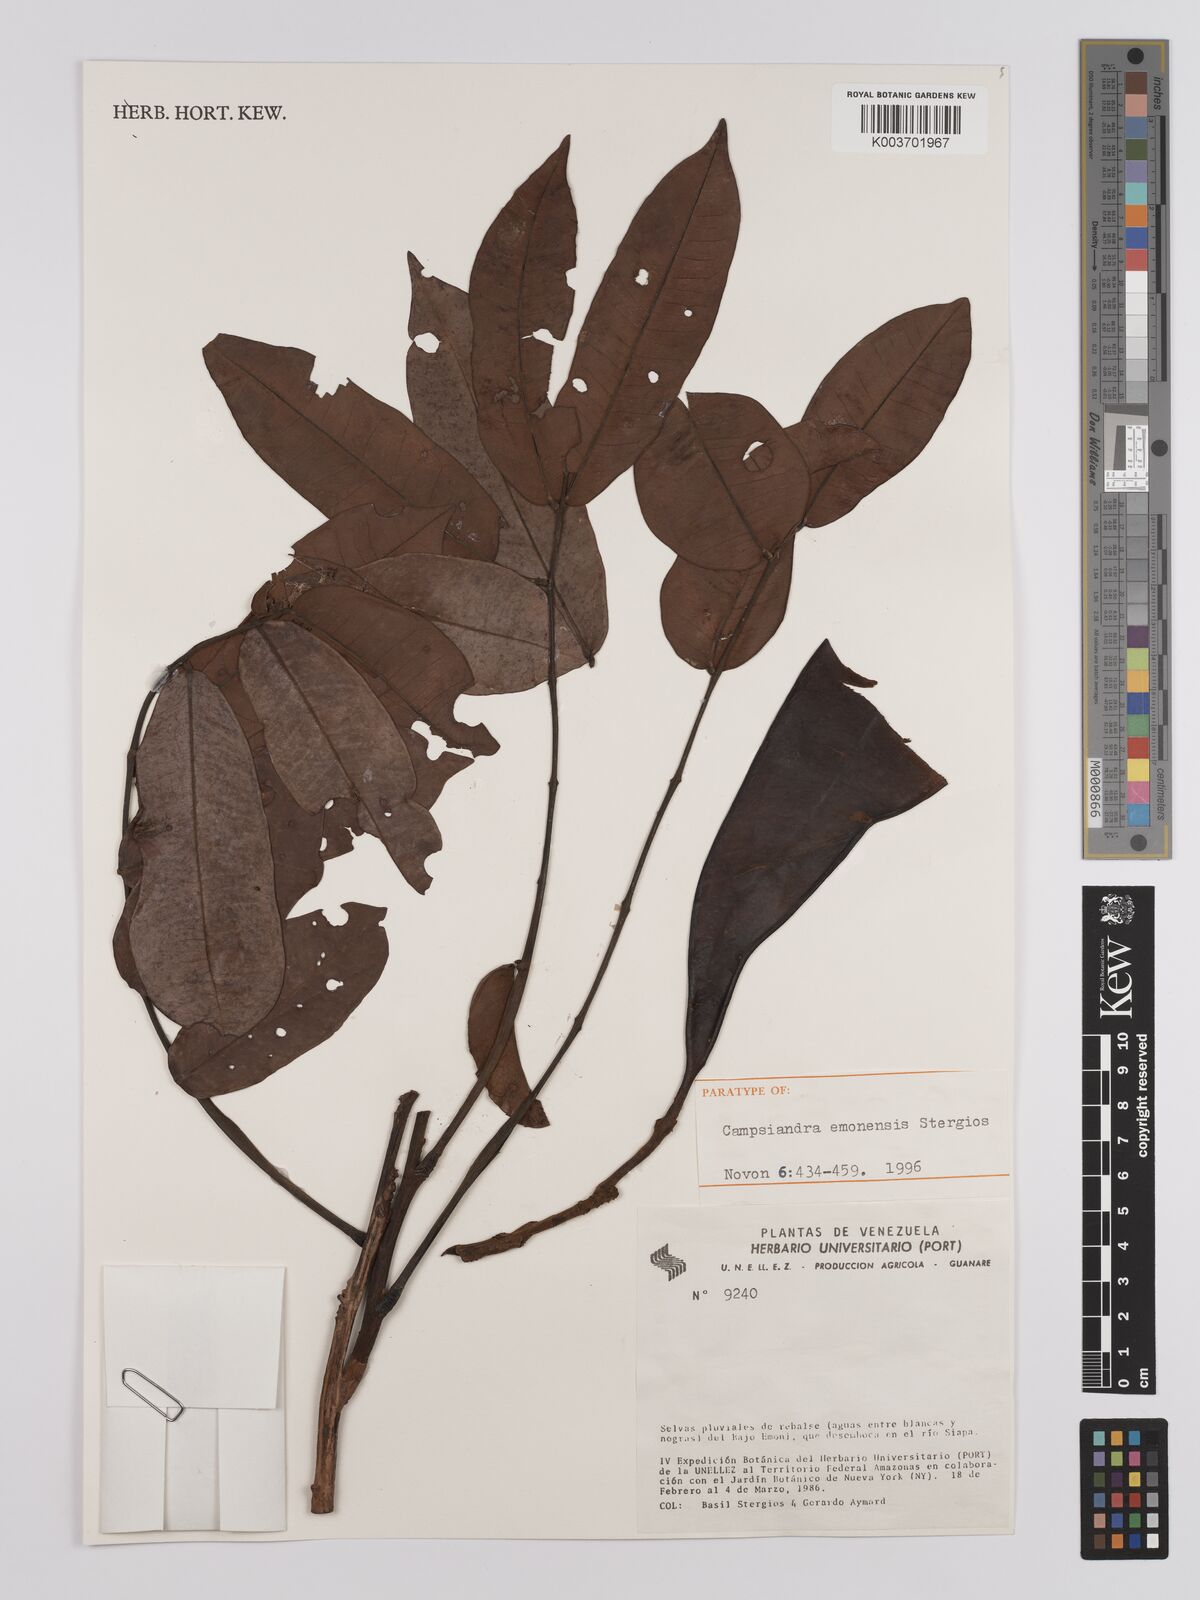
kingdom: Plantae
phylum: Tracheophyta
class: Magnoliopsida
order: Fabales
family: Fabaceae
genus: Campsiandra
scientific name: Campsiandra emonensis
